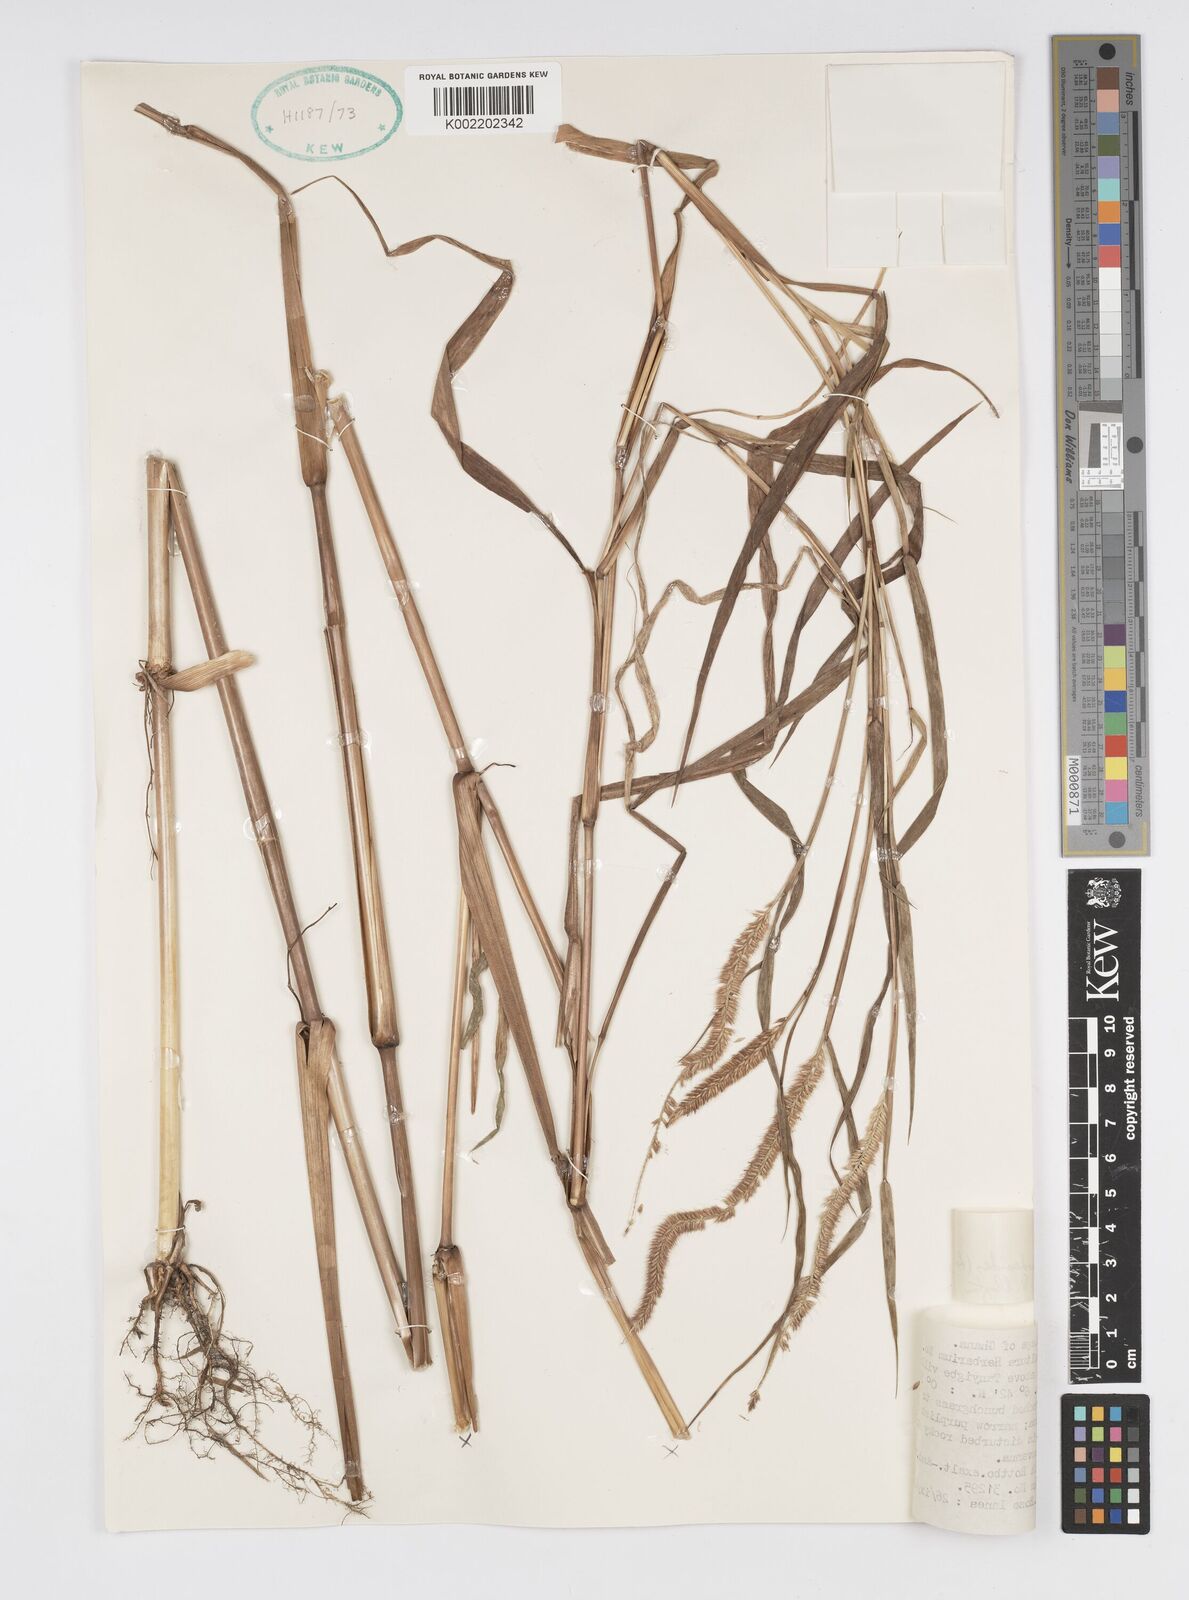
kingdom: Plantae
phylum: Tracheophyta
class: Liliopsida
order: Poales
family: Poaceae
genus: Cenchrus
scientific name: Cenchrus hordeoides
